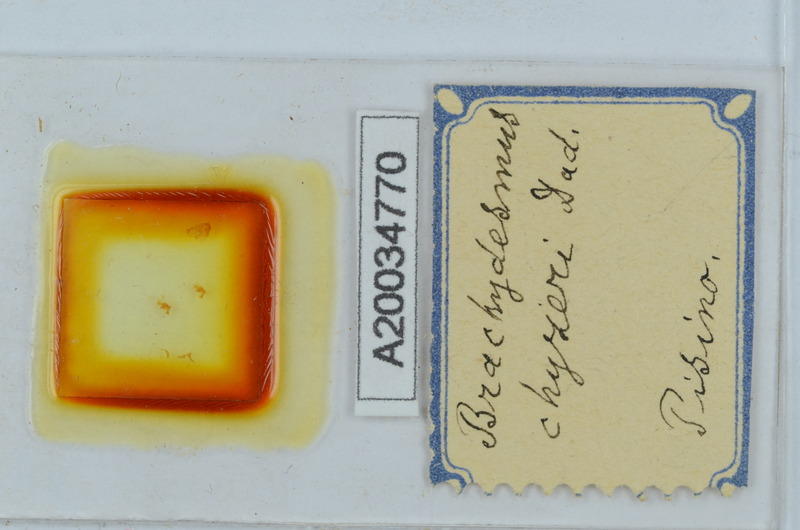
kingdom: Animalia
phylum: Arthropoda
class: Diplopoda
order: Polydesmida
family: Polydesmidae
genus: Brachydesmus
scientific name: Brachydesmus chyzeri
